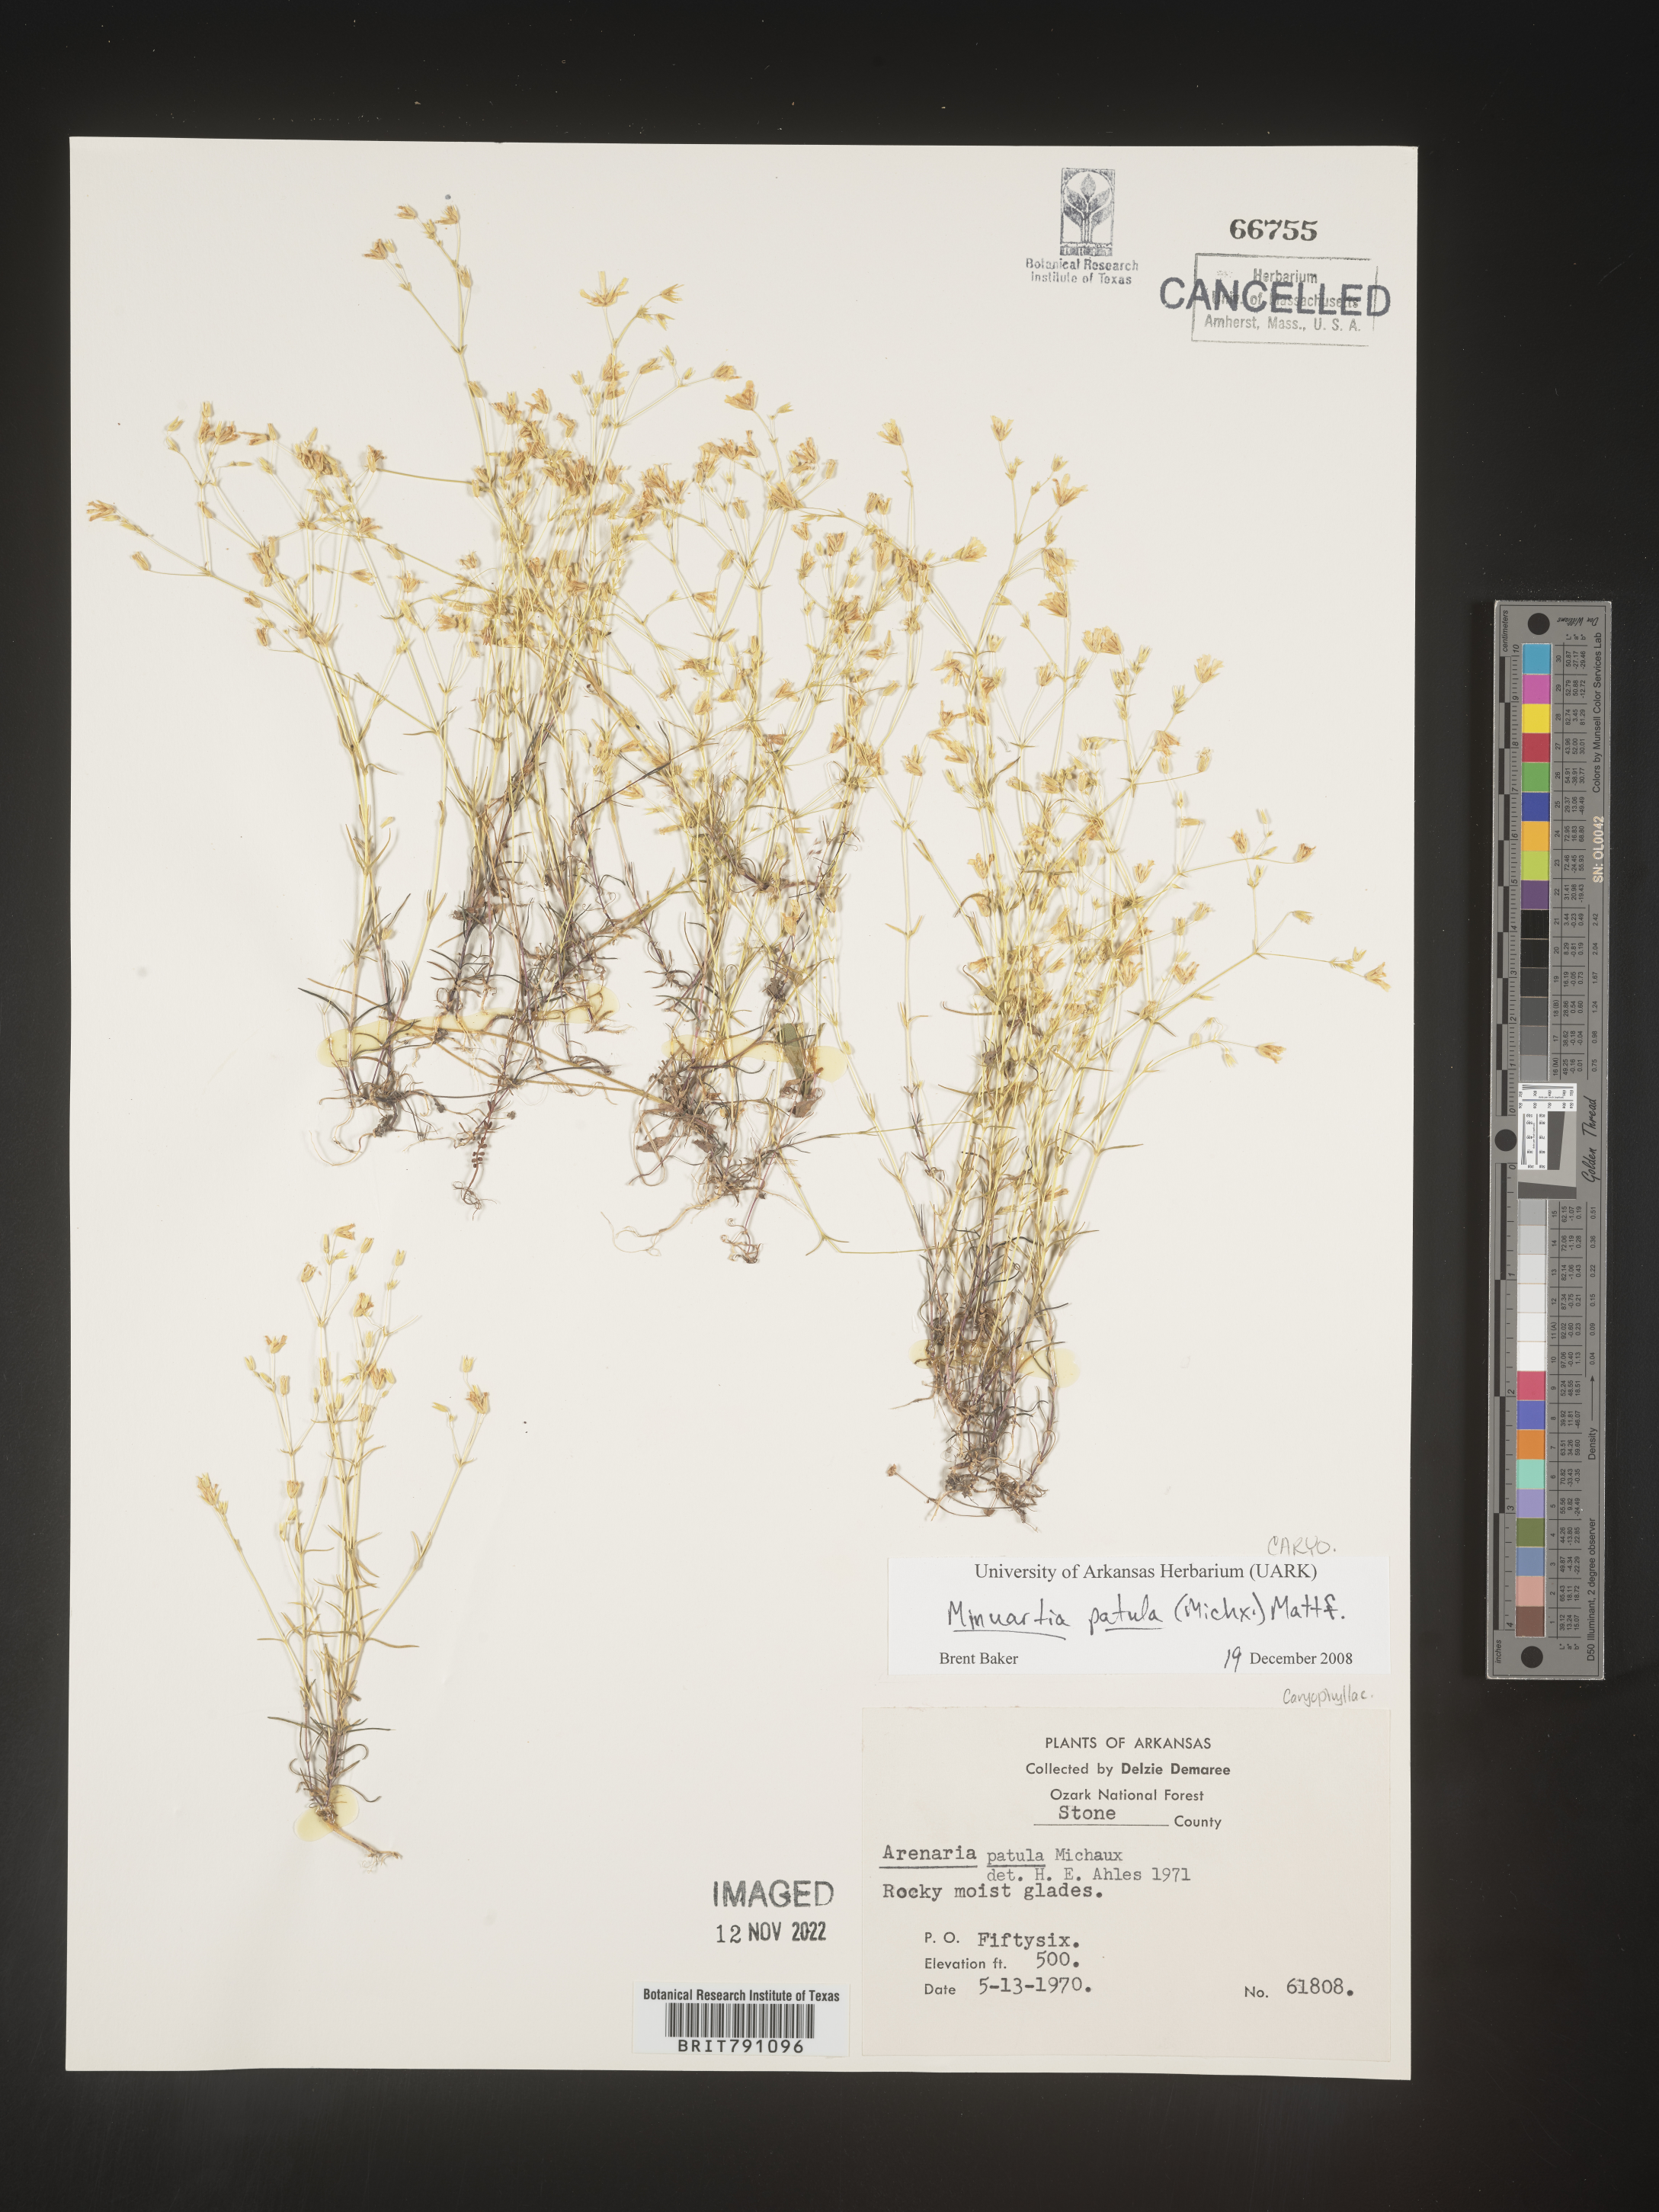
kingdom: Plantae
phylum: Tracheophyta
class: Magnoliopsida
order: Caryophyllales
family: Caryophyllaceae
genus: Mononeuria
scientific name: Mononeuria patula
